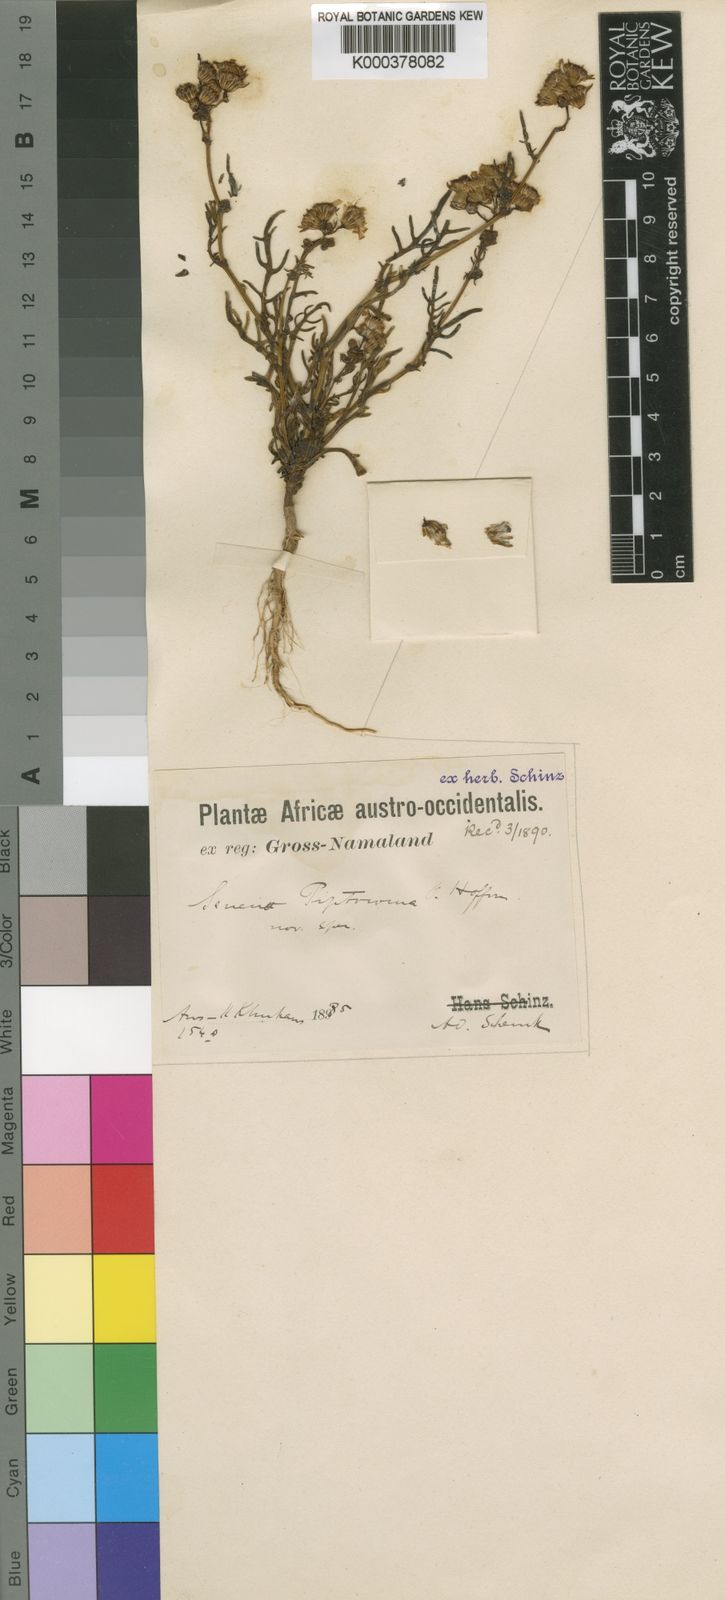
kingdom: Plantae
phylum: Tracheophyta
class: Magnoliopsida
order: Asterales
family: Asteraceae
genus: Senecio
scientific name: Senecio piptocoma
